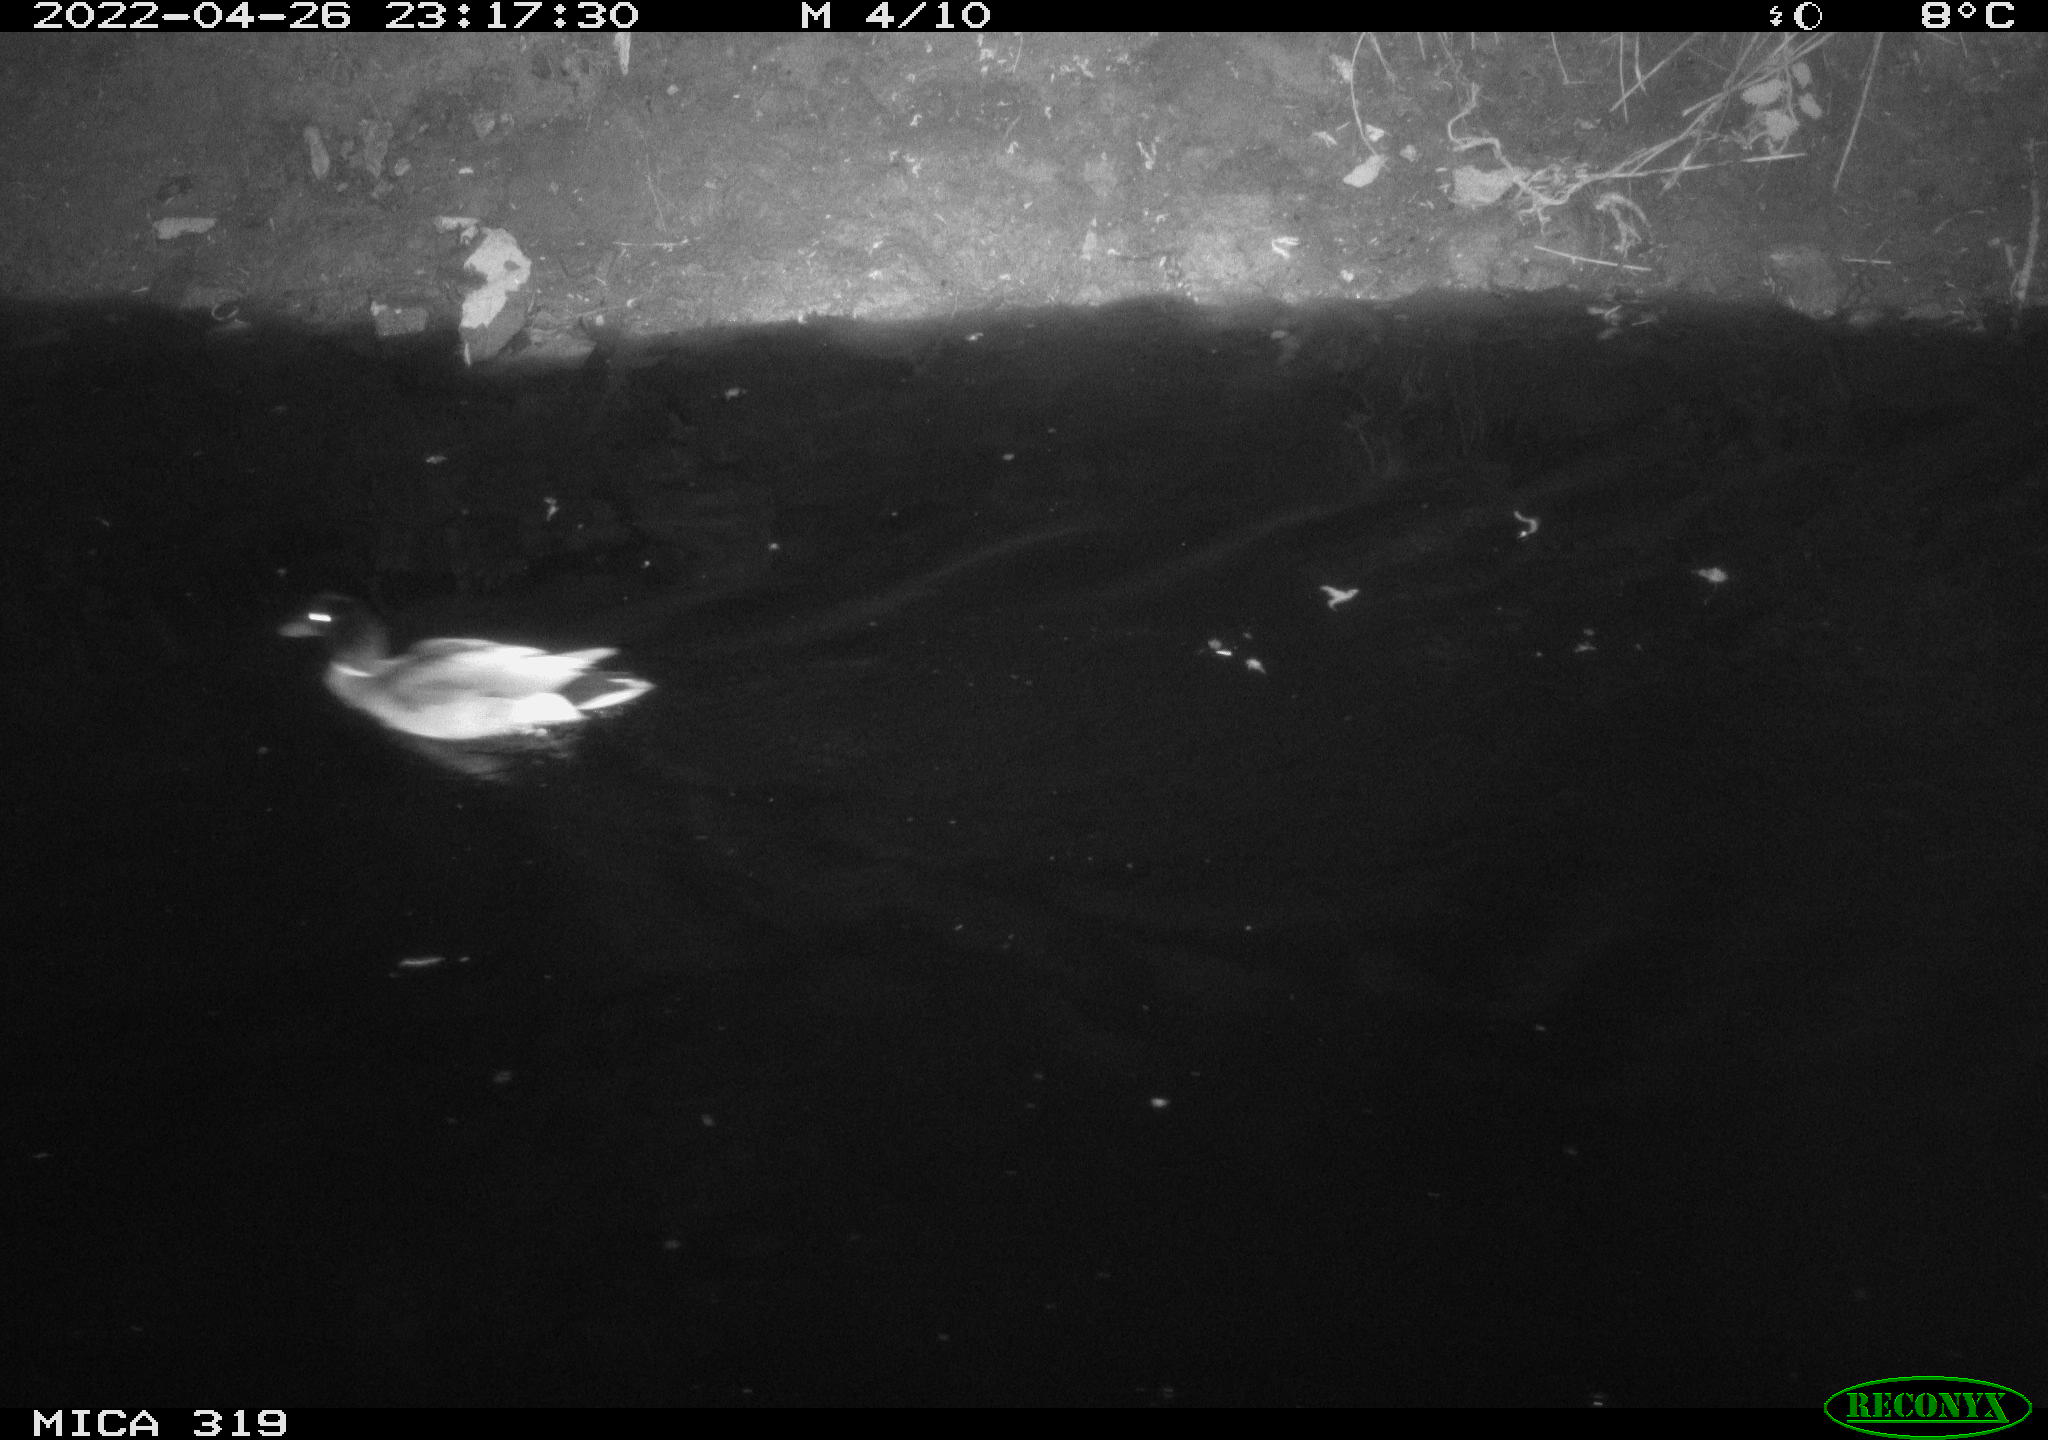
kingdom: Animalia
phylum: Chordata
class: Aves
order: Anseriformes
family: Anatidae
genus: Anas
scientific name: Anas platyrhynchos
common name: Mallard
